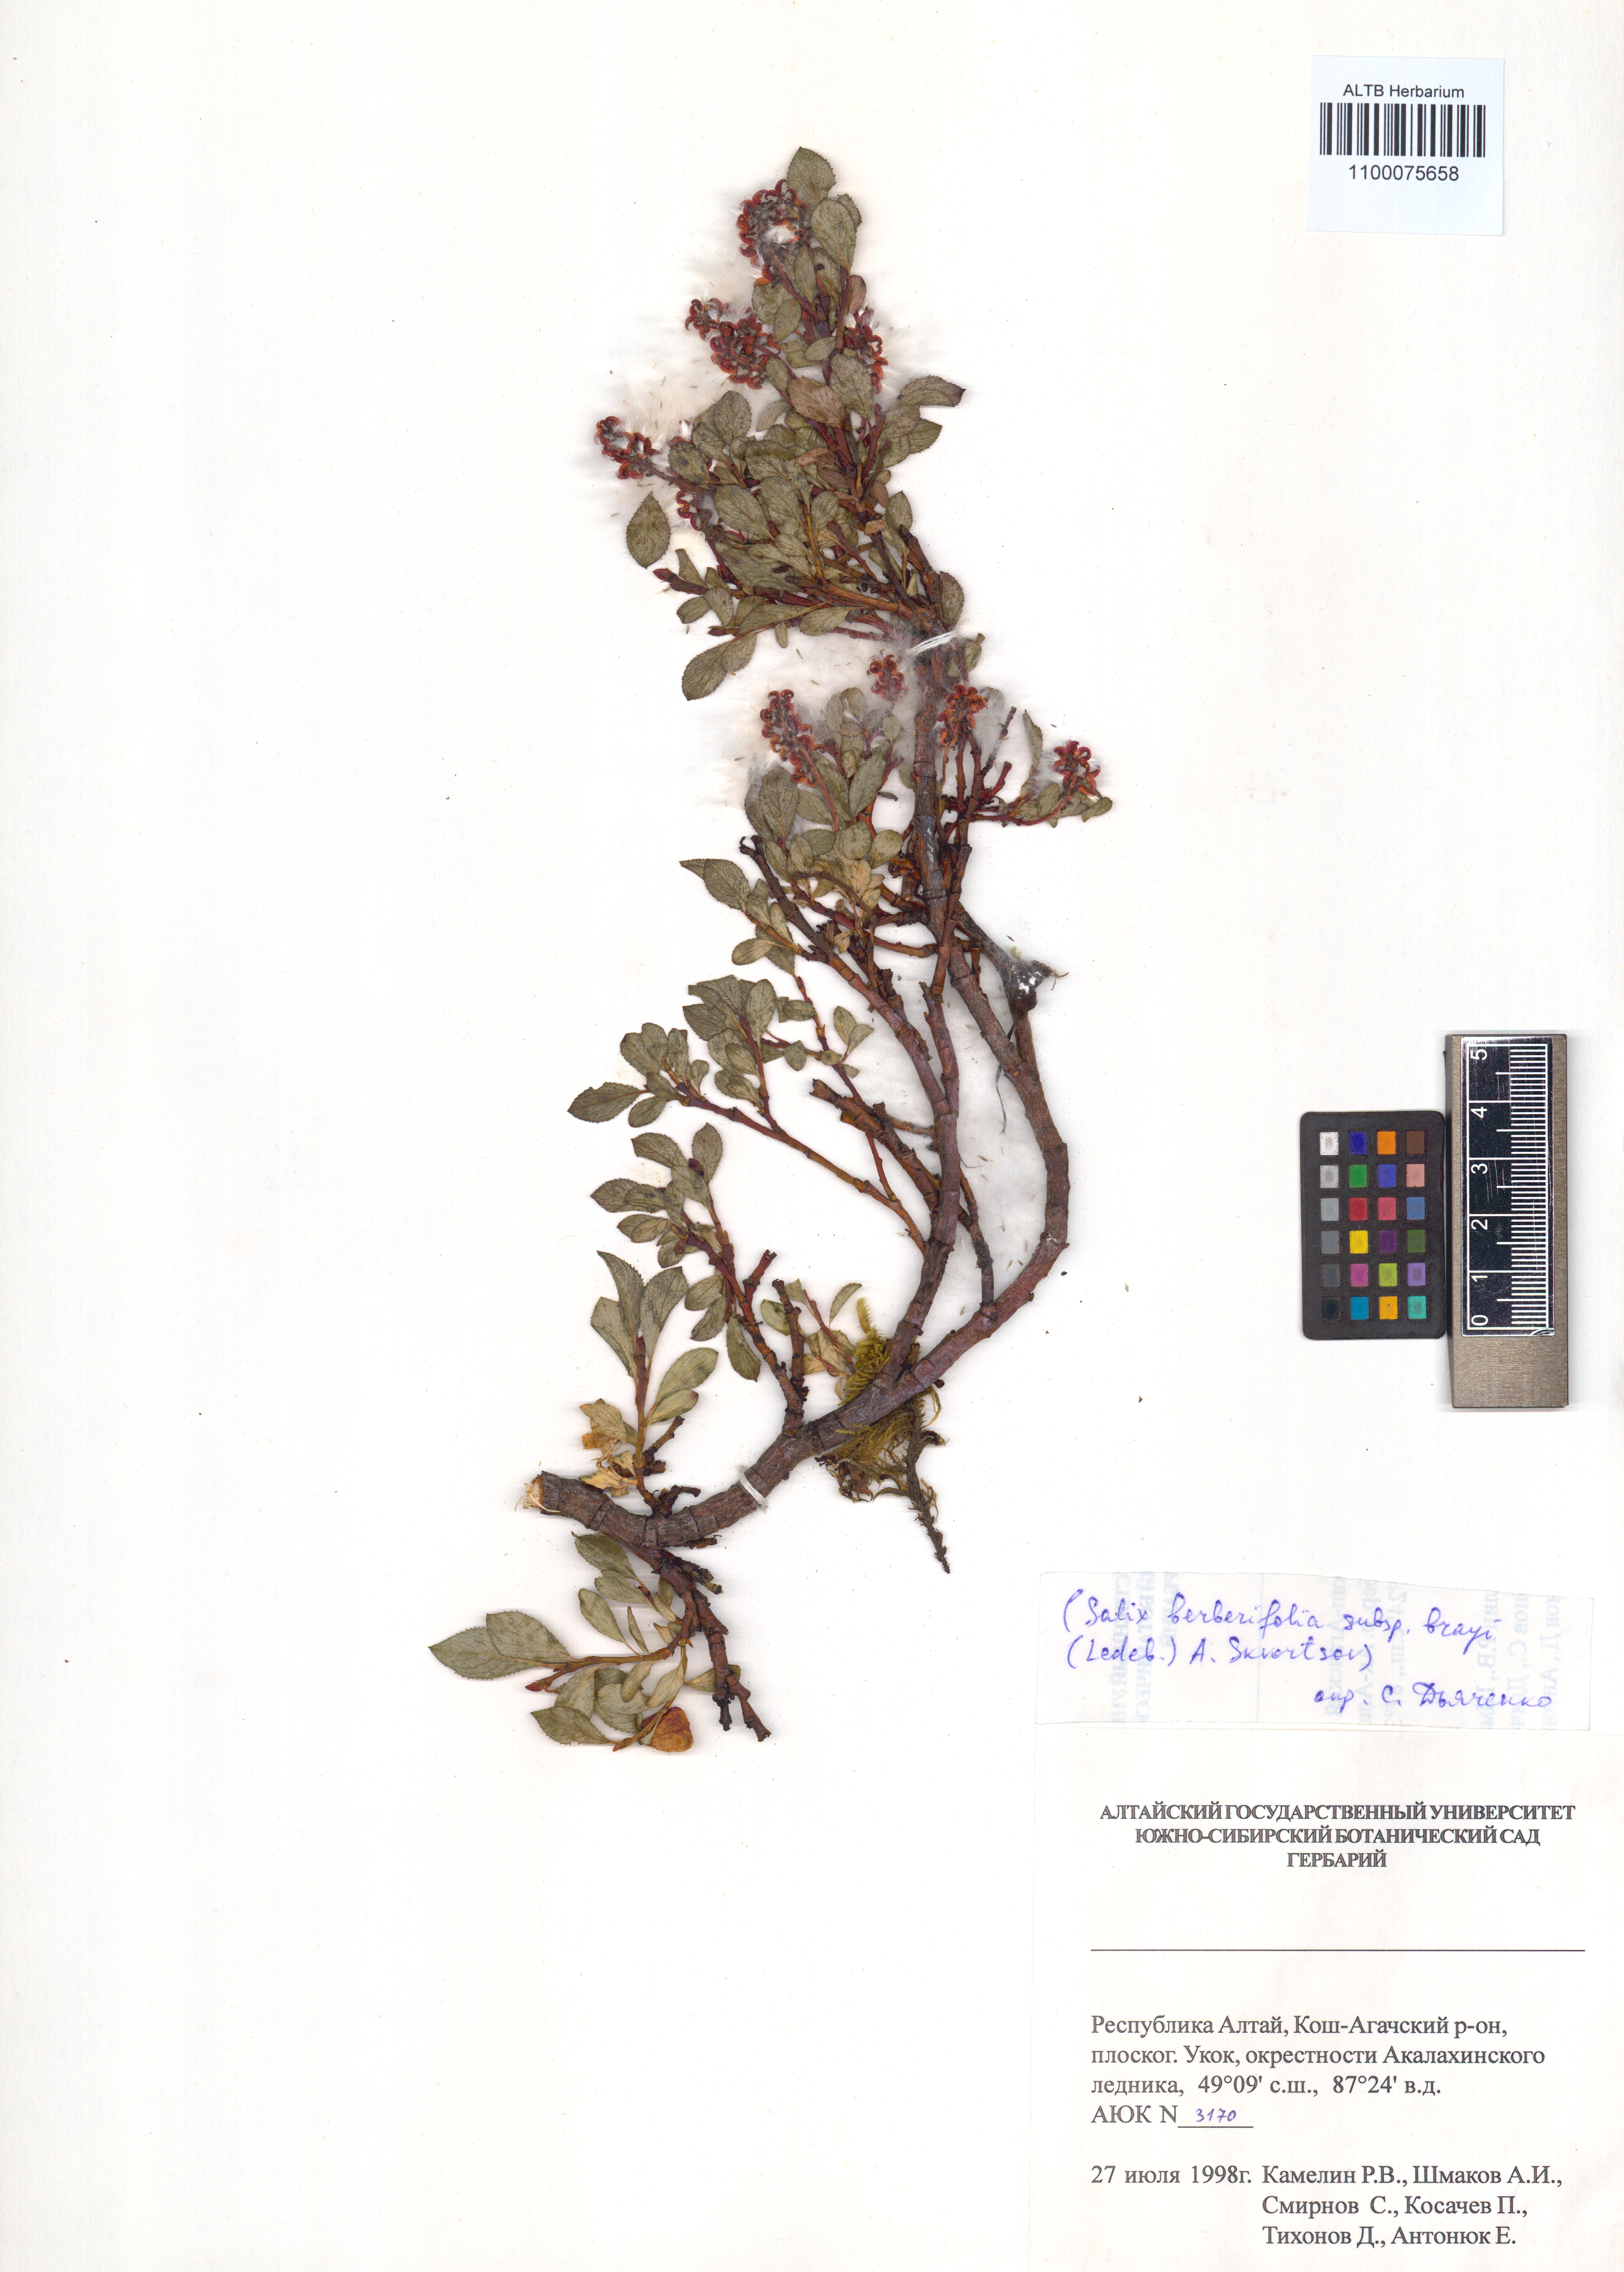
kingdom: Plantae
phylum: Tracheophyta
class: Magnoliopsida
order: Malpighiales
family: Salicaceae
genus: Salix
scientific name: Salix berberifolia
